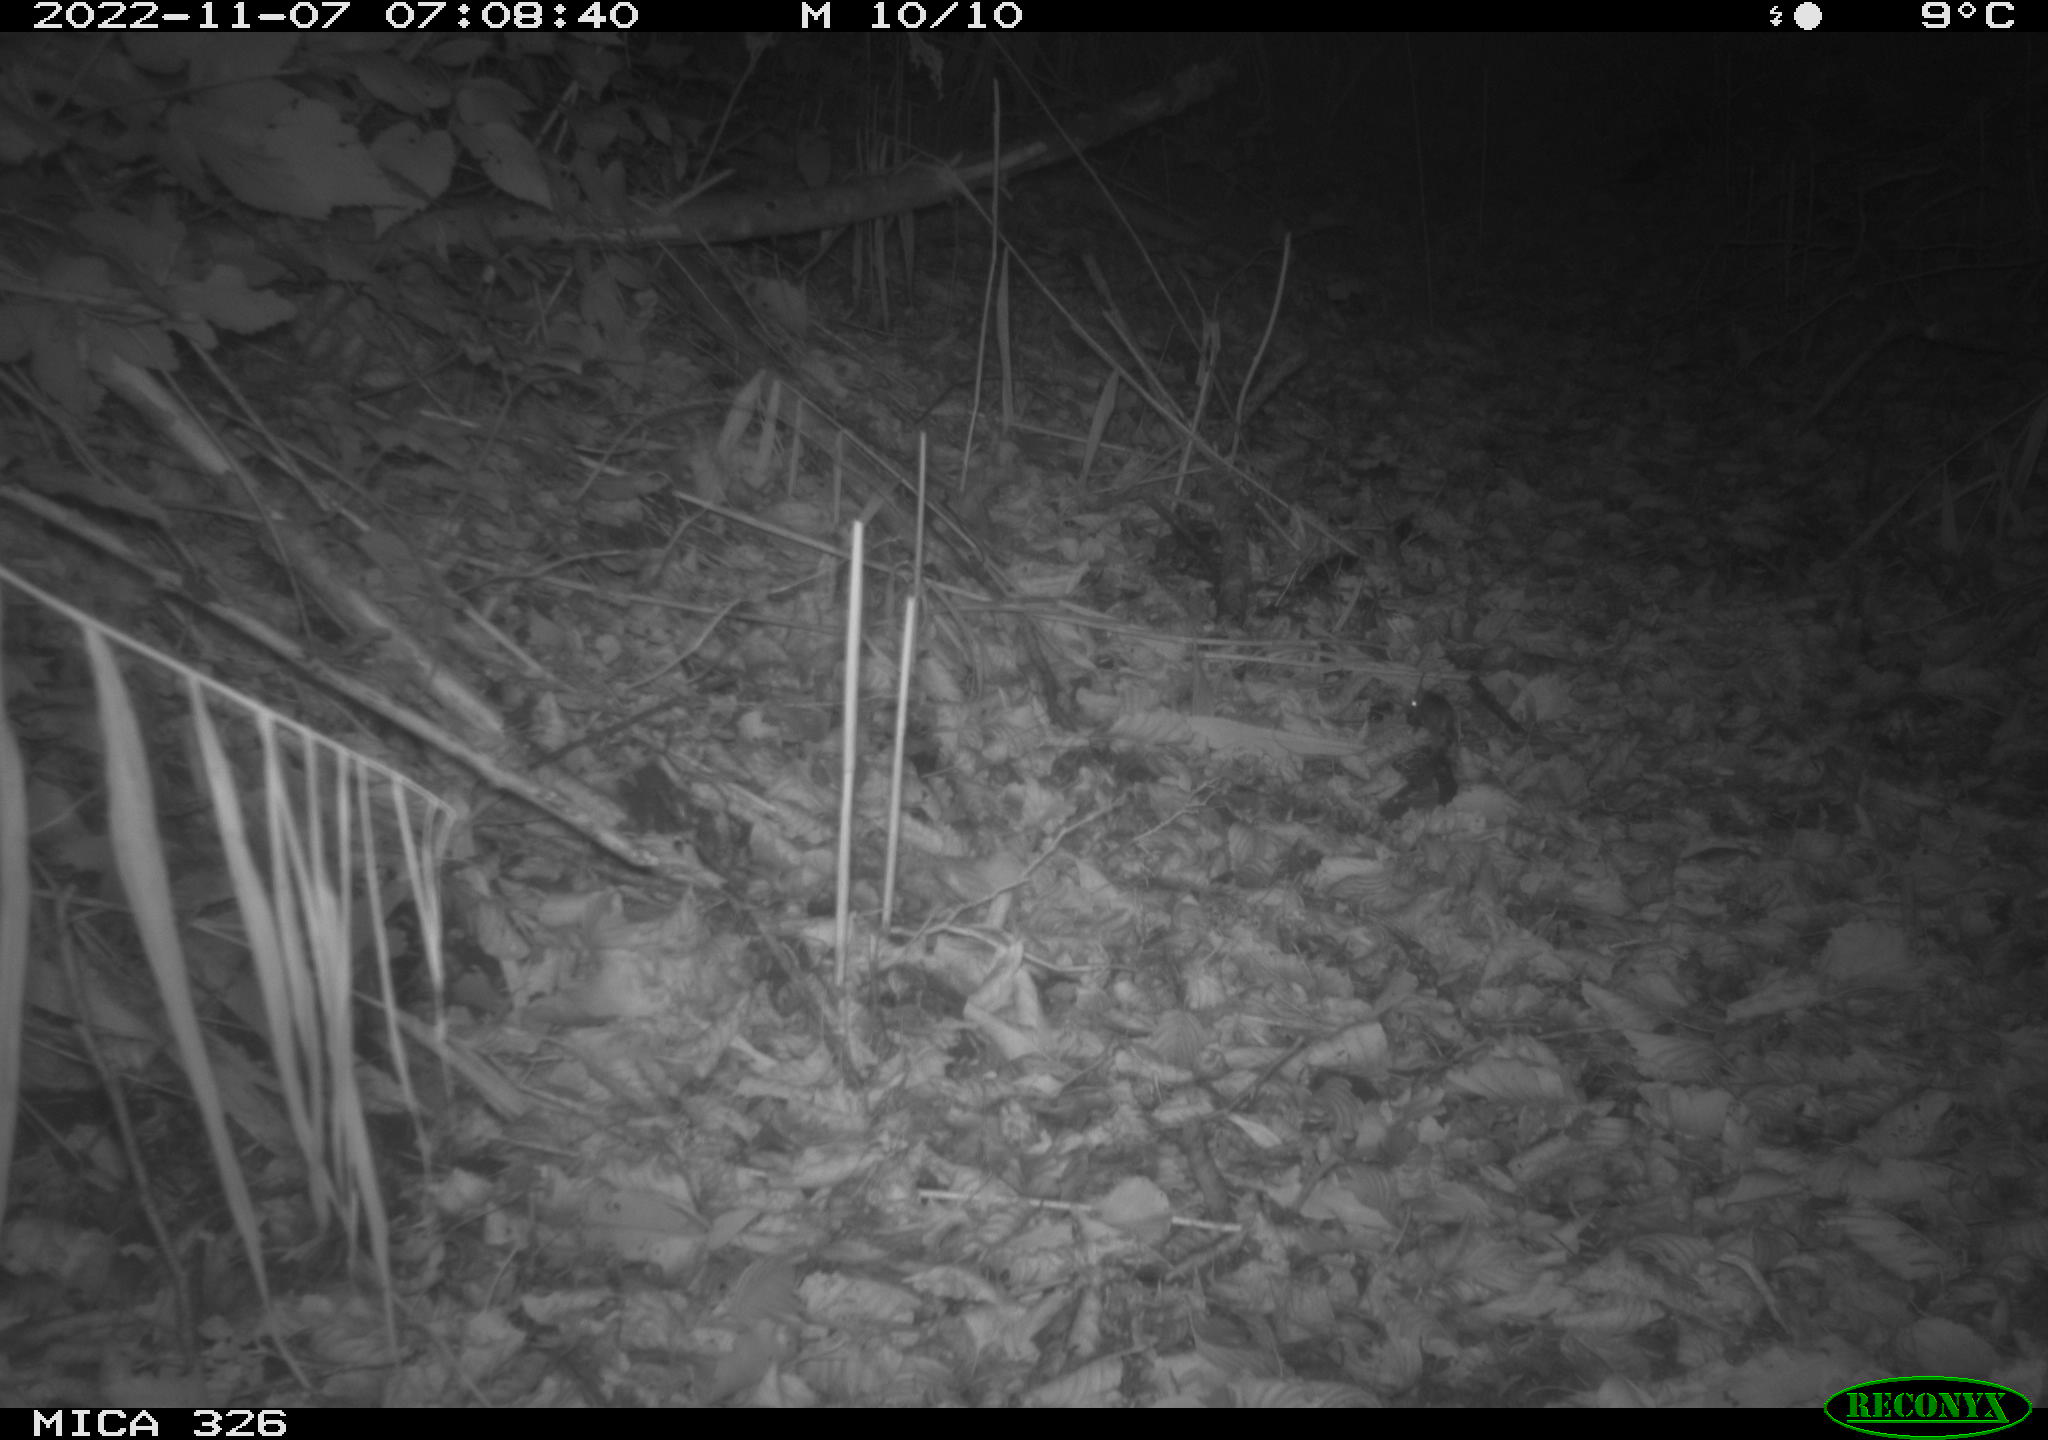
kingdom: Animalia
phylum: Chordata
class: Mammalia
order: Rodentia
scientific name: Rodentia
